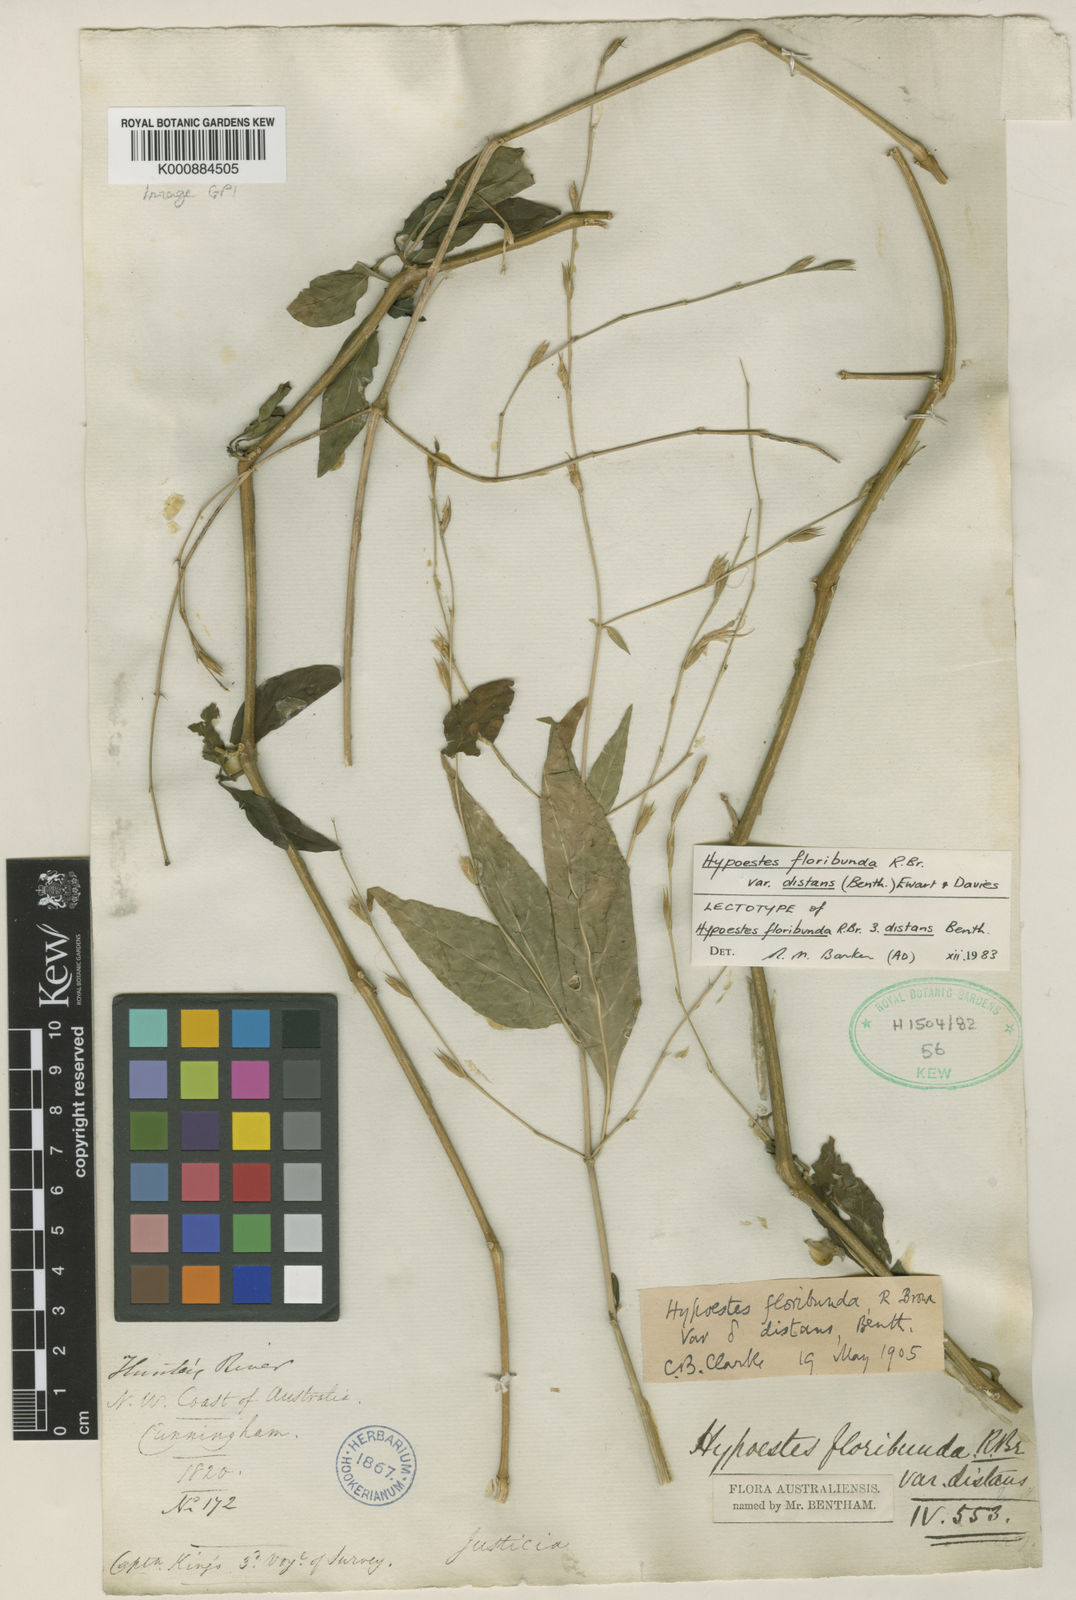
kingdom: Plantae
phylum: Tracheophyta
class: Magnoliopsida
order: Lamiales
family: Acanthaceae
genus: Hypoestes
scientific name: Hypoestes floribunda
